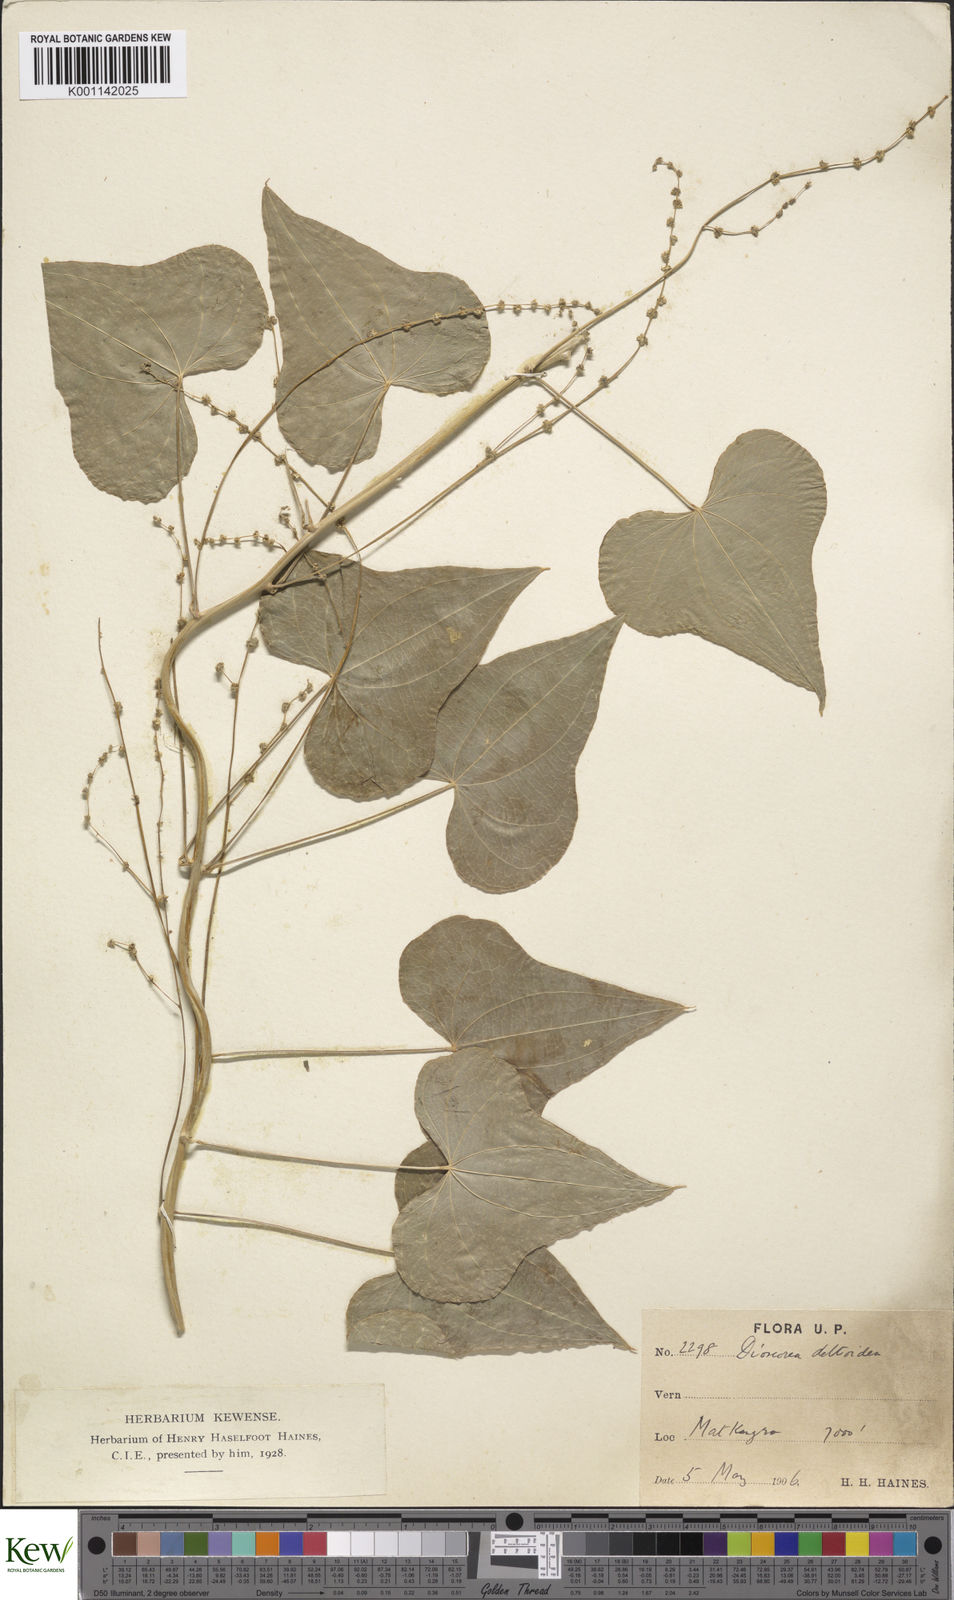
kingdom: Plantae
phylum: Tracheophyta
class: Liliopsida
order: Dioscoreales
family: Dioscoreaceae
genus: Dioscorea
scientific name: Dioscorea deltoidea
